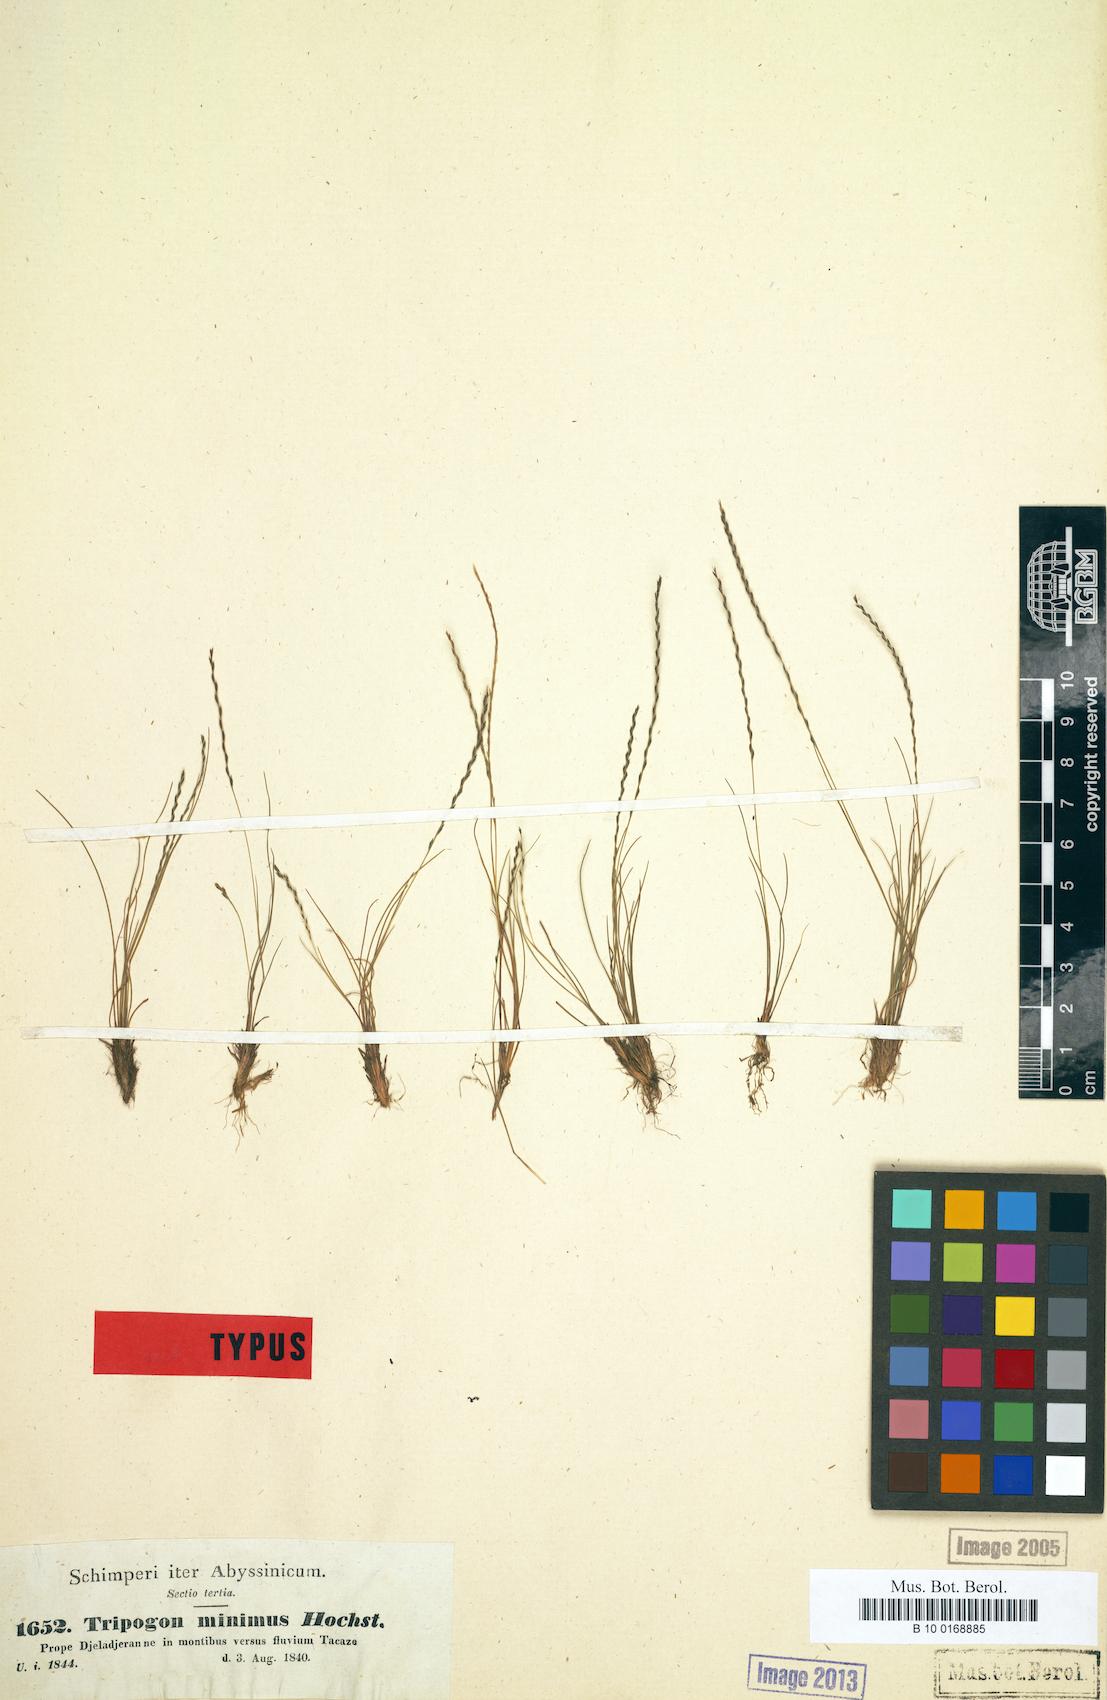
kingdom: Plantae
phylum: Tracheophyta
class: Liliopsida
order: Poales
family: Poaceae
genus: Tripogonella
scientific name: Tripogonella minima
